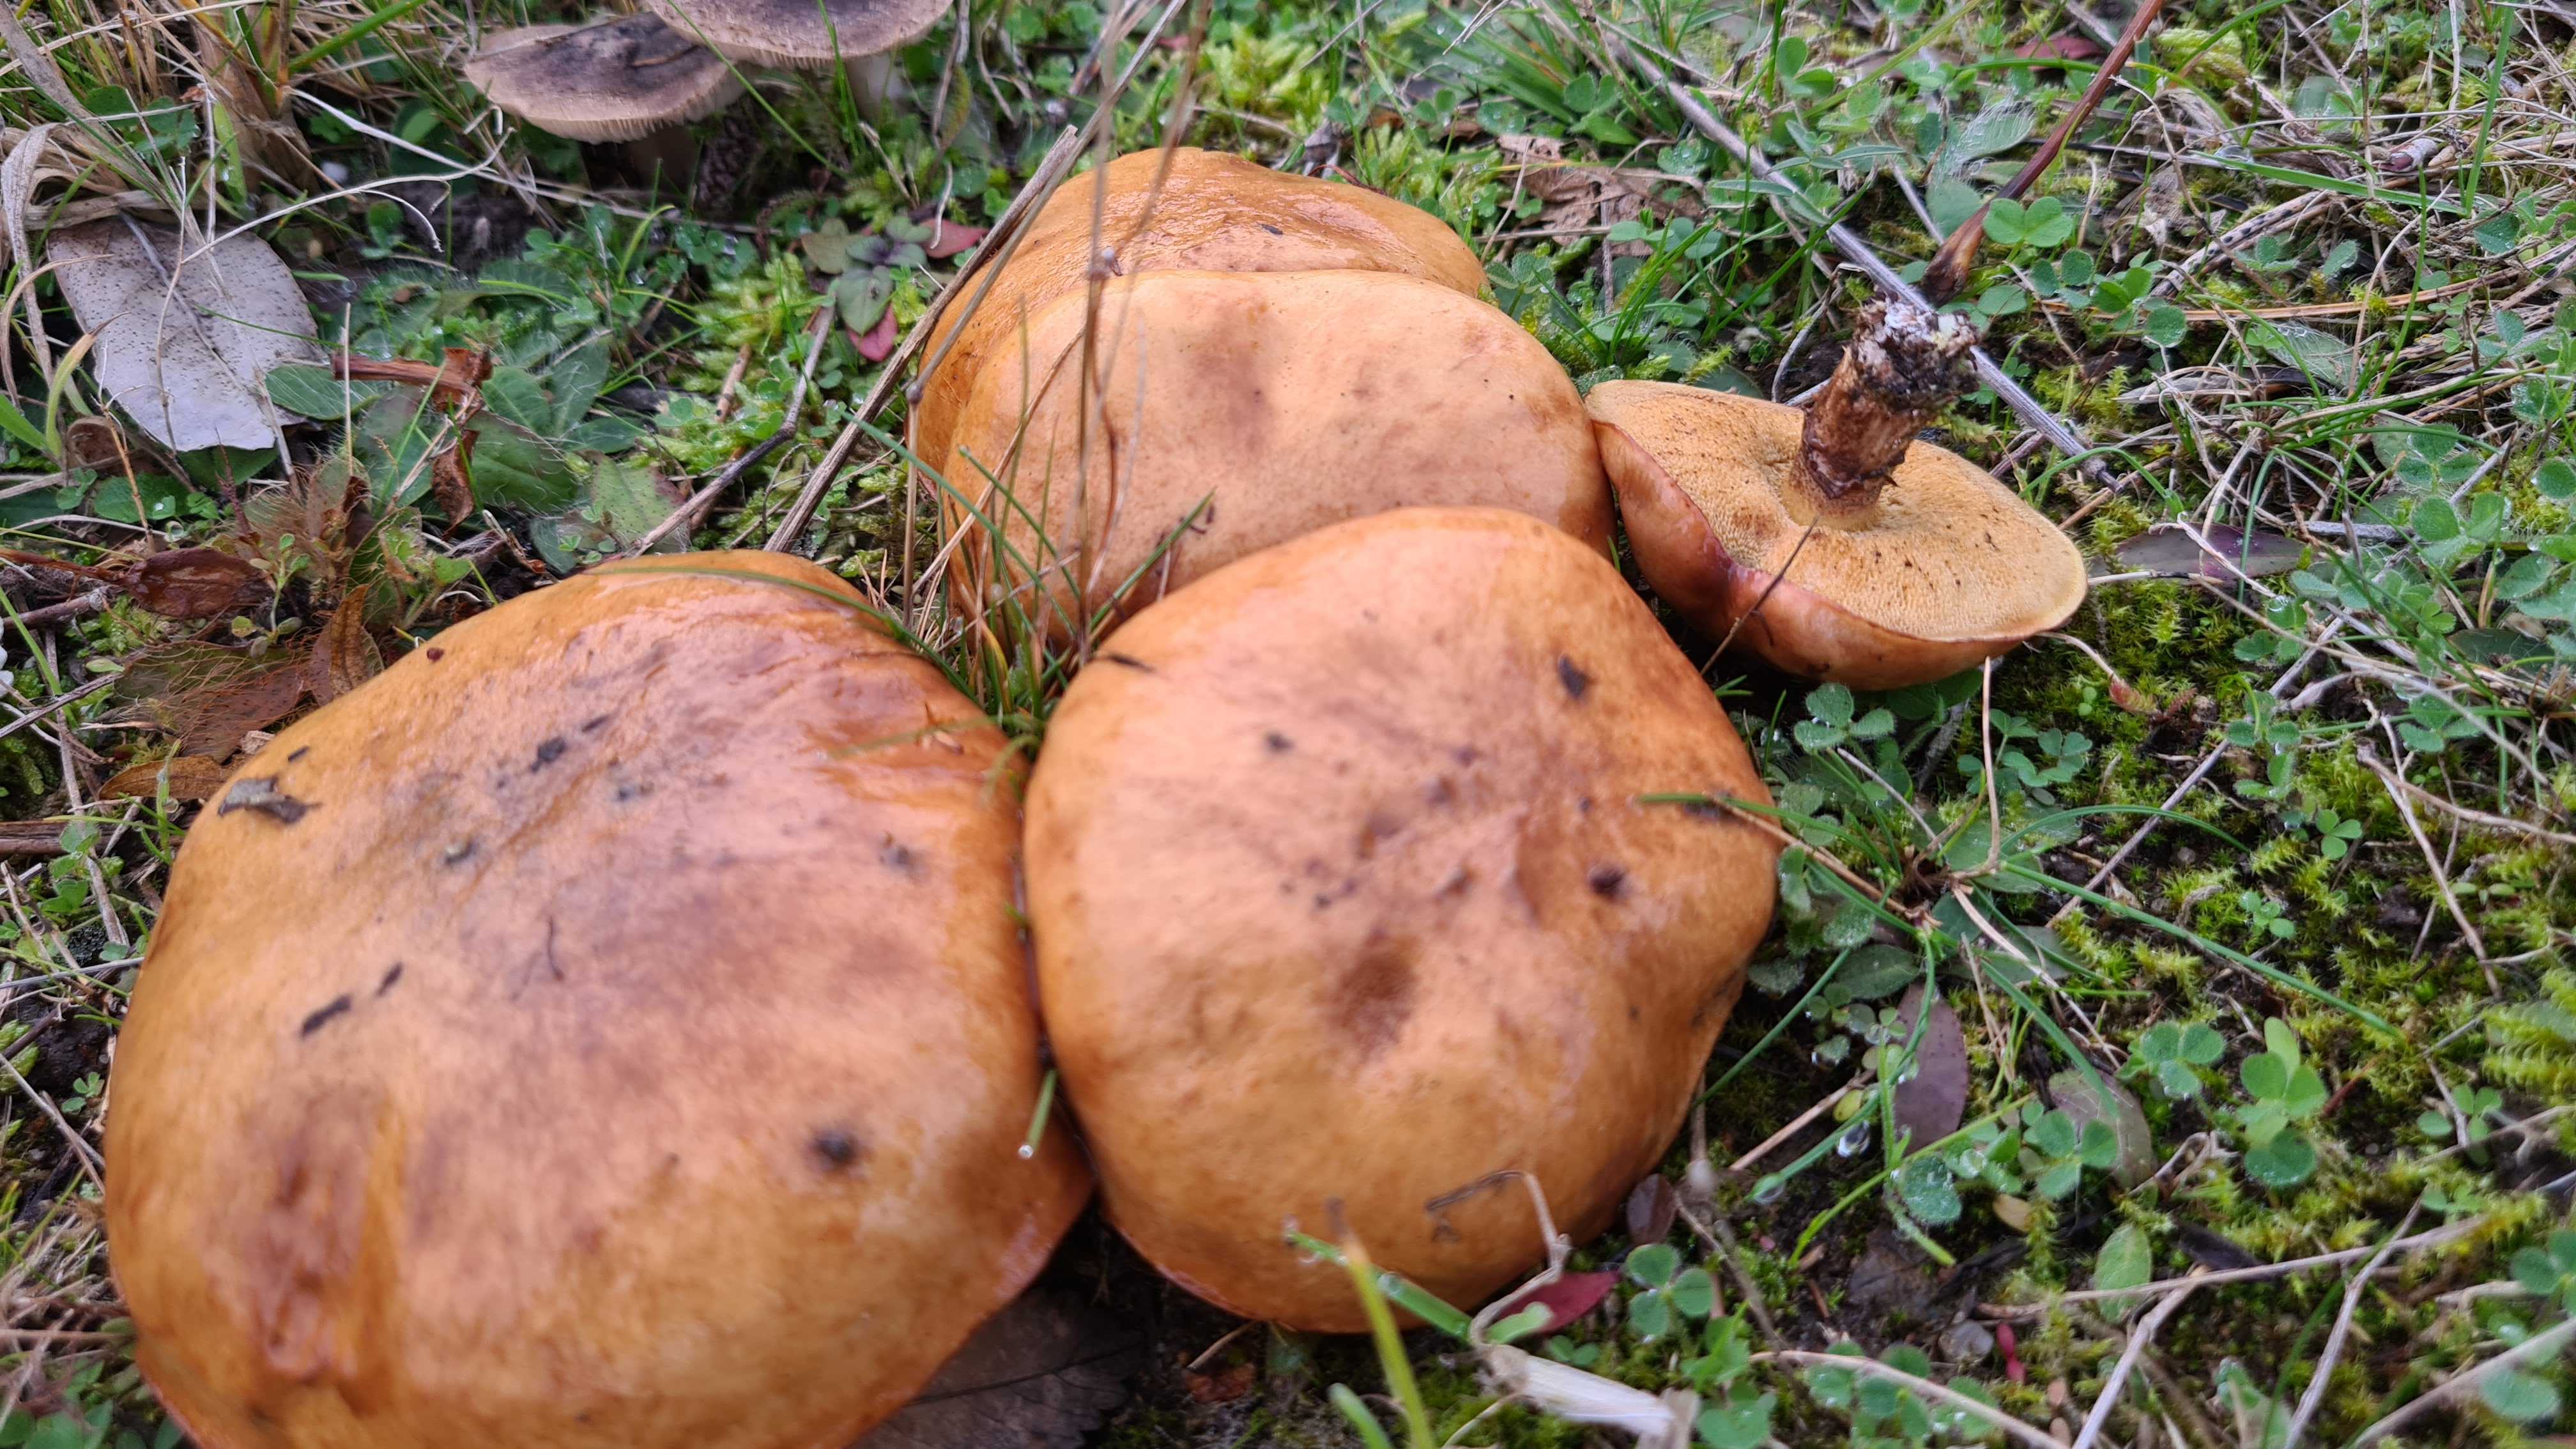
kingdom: Fungi
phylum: Basidiomycota
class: Agaricomycetes
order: Boletales
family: Suillaceae
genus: Suillus
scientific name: Suillus luteus
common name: brungul slimrørhat
